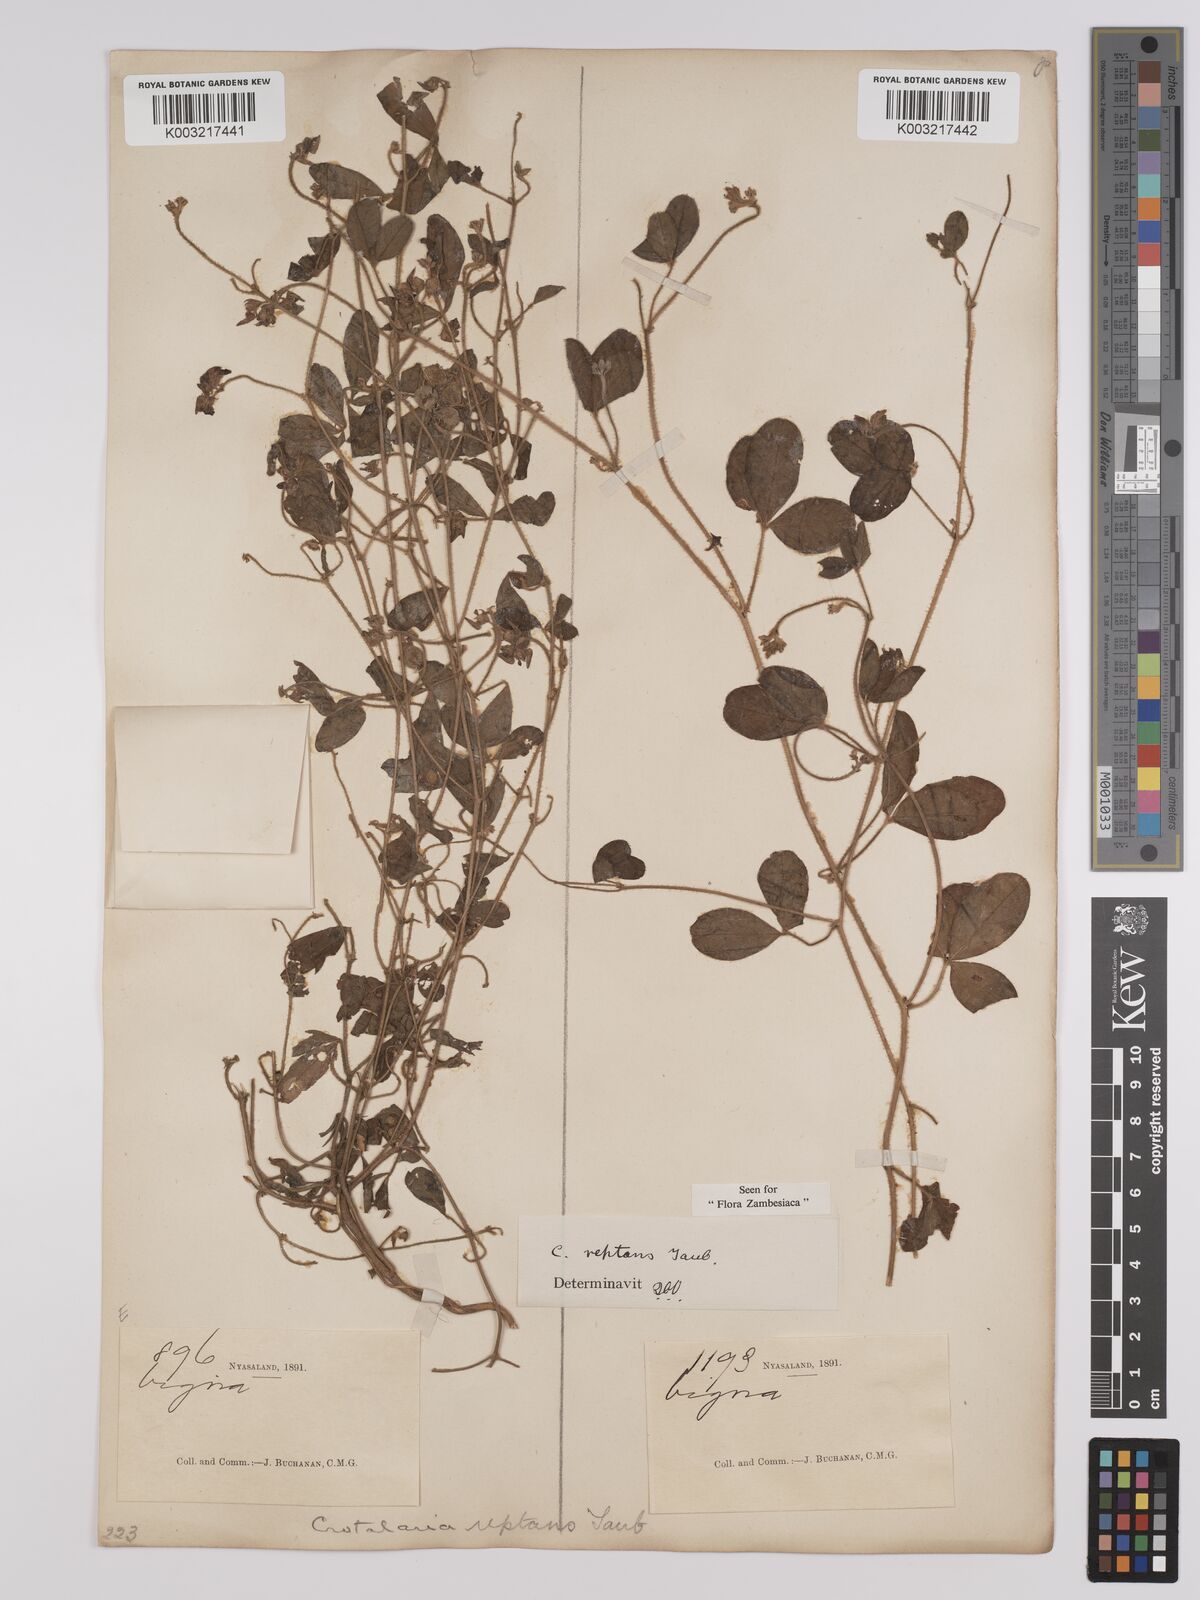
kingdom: Plantae
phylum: Tracheophyta
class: Magnoliopsida
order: Fabales
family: Fabaceae
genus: Crotalaria
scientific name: Crotalaria reptans
